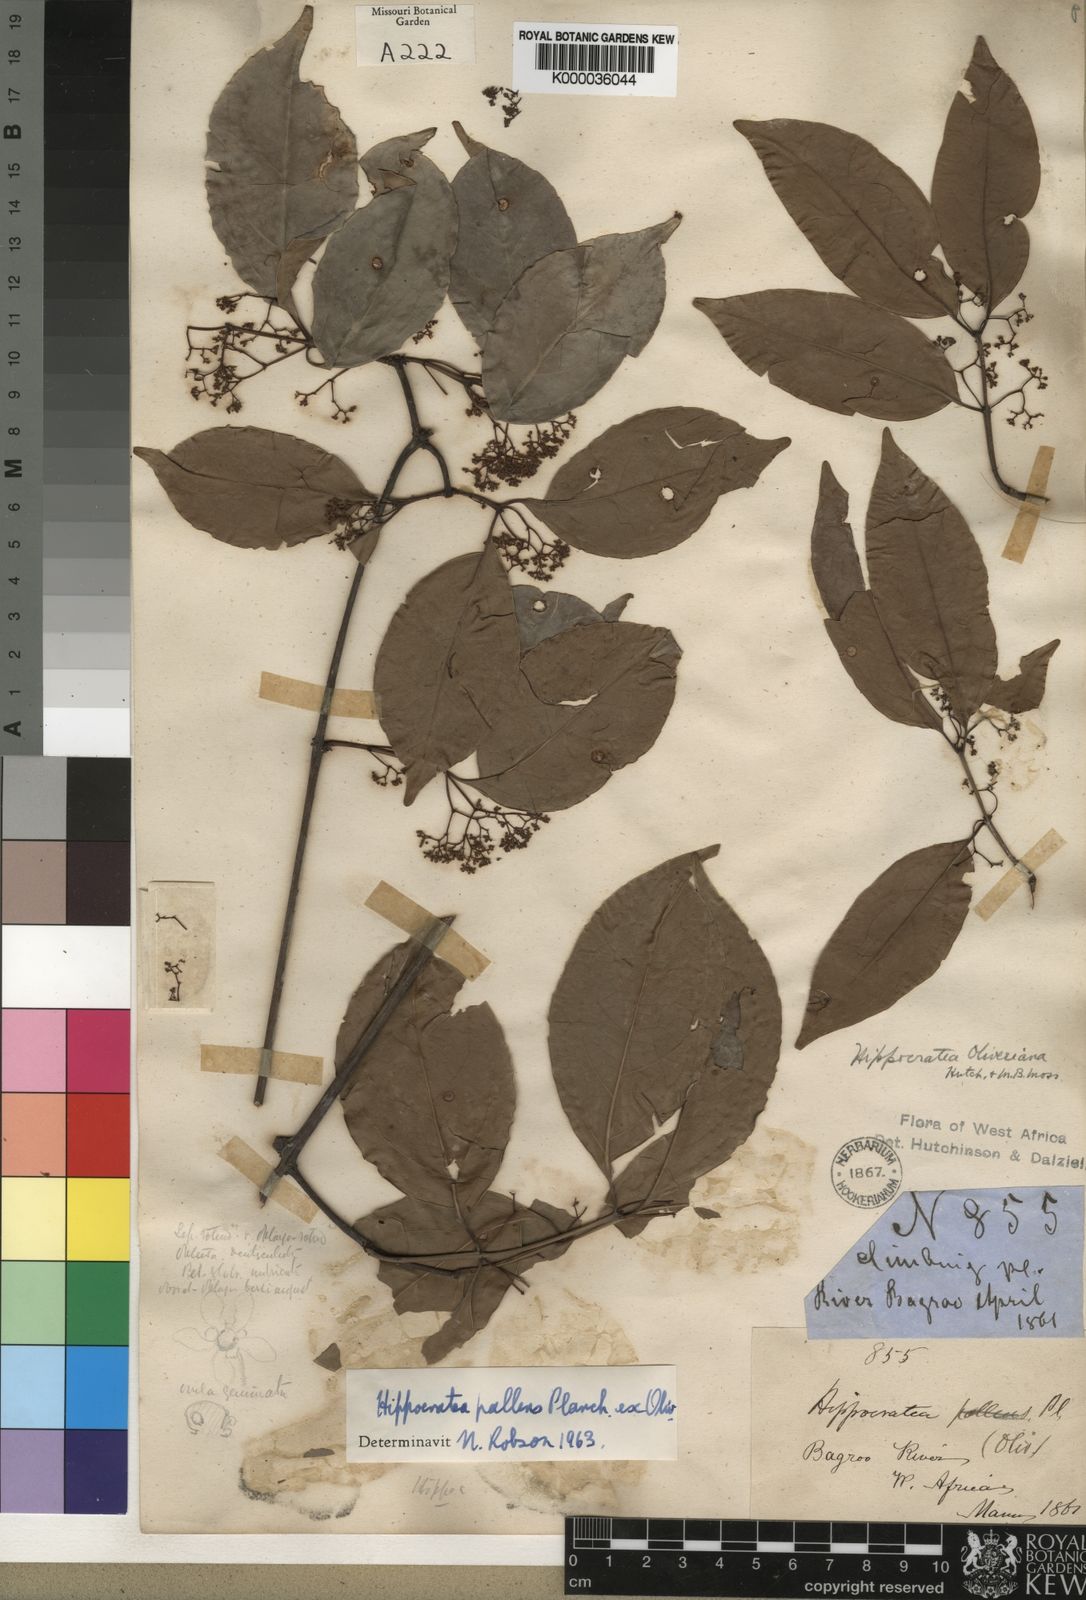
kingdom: Plantae
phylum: Tracheophyta
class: Magnoliopsida
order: Celastrales
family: Celastraceae
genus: Apodostigma
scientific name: Apodostigma pallens
